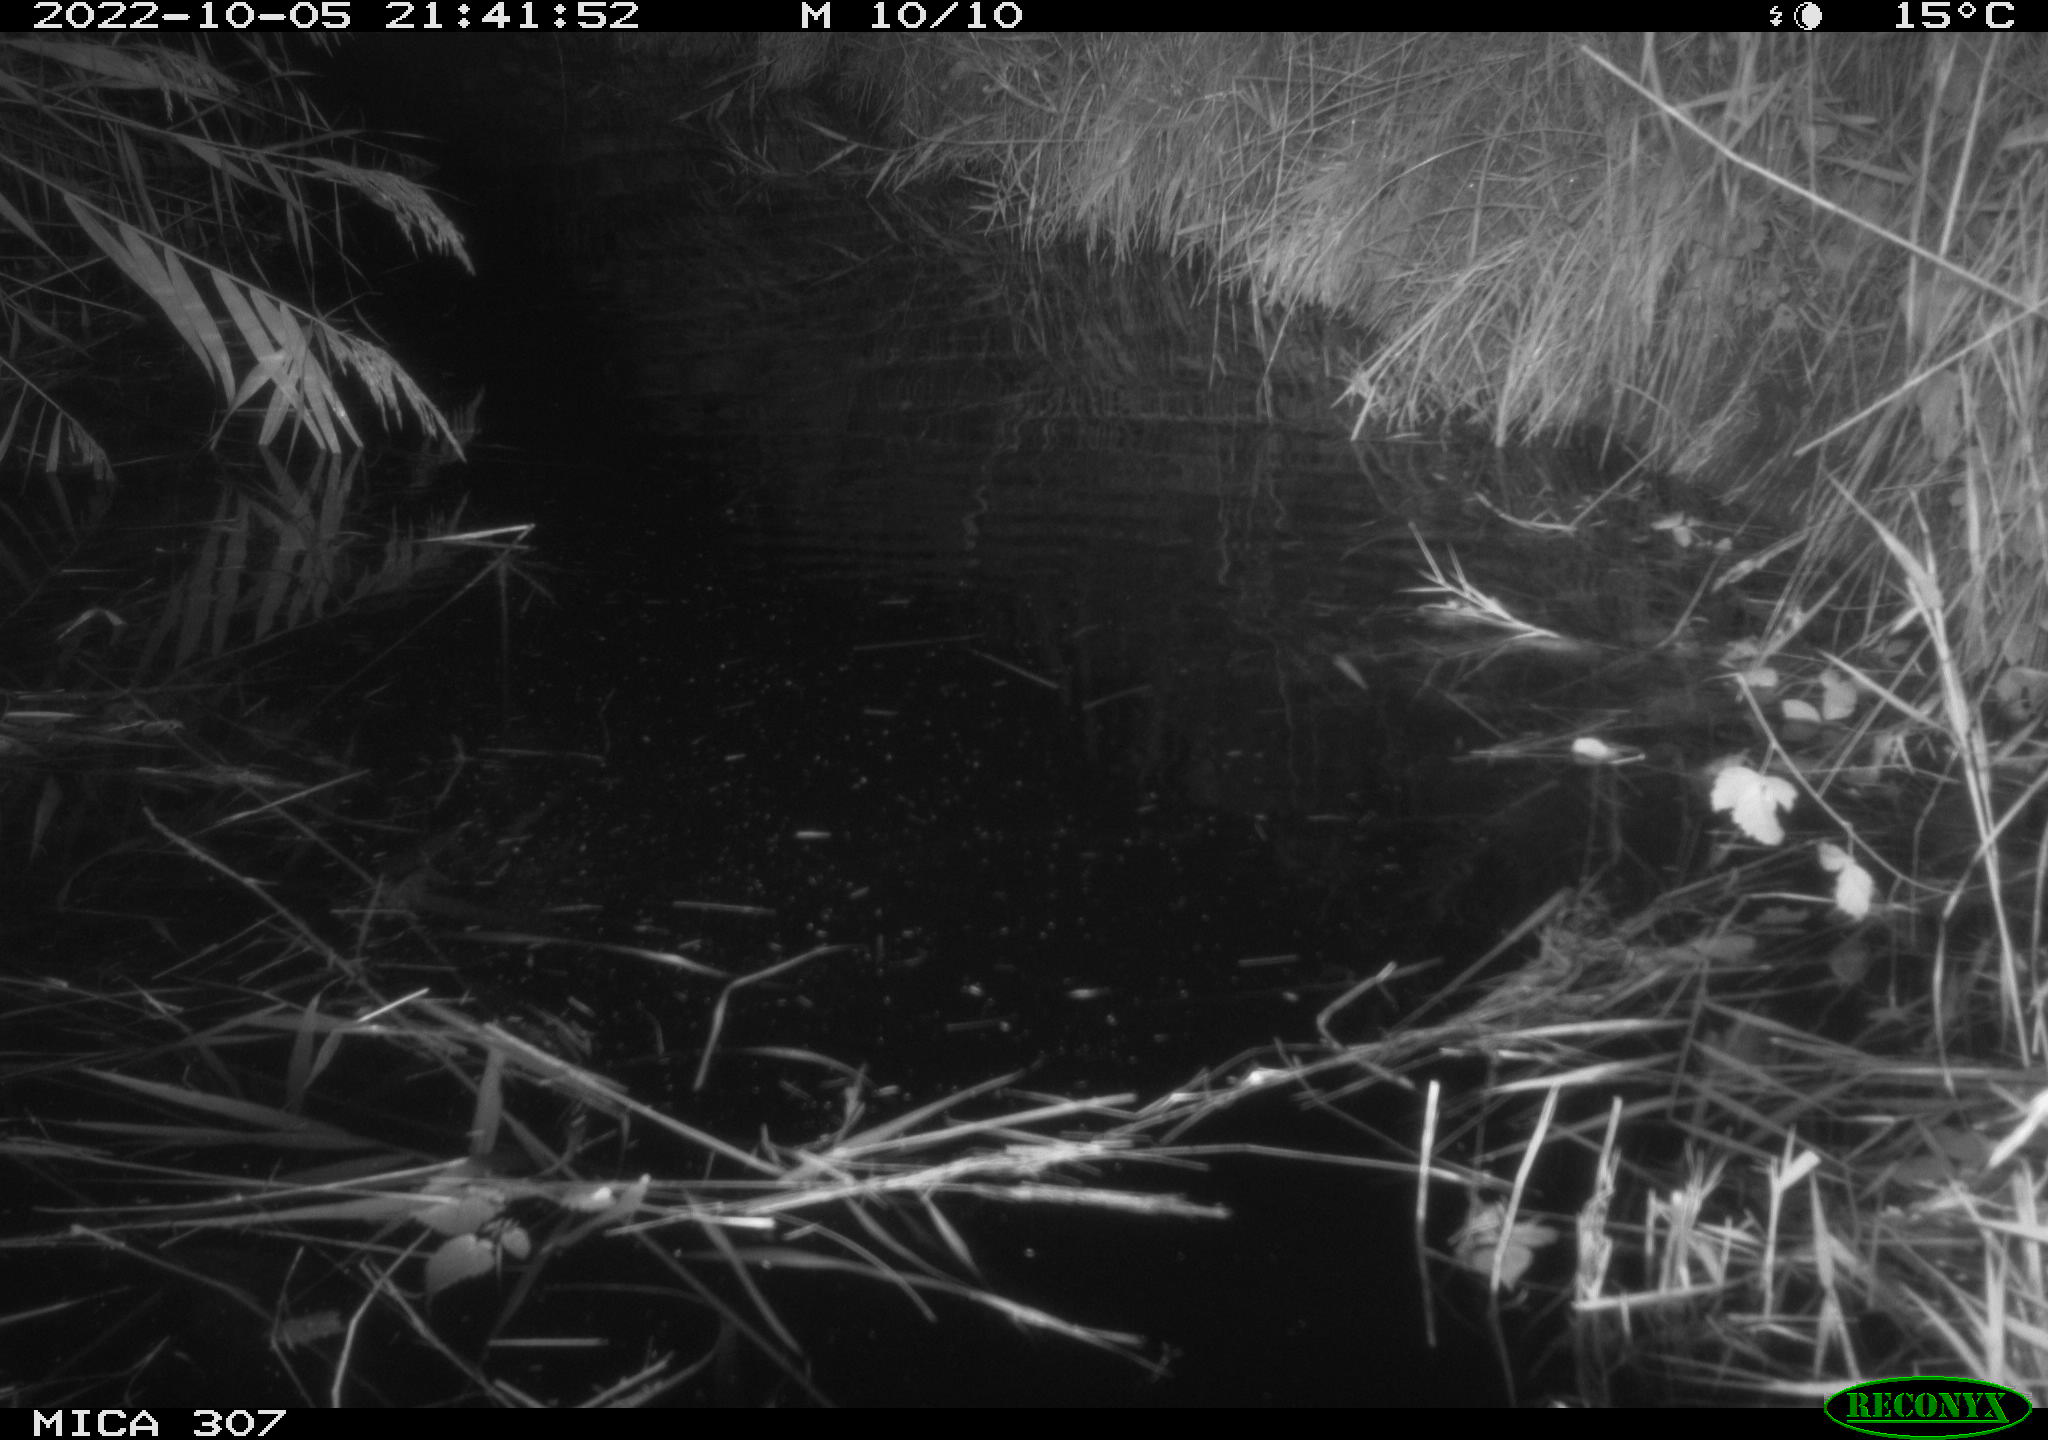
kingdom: Animalia
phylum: Chordata
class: Mammalia
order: Rodentia
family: Muridae
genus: Rattus
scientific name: Rattus norvegicus
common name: Brown rat
